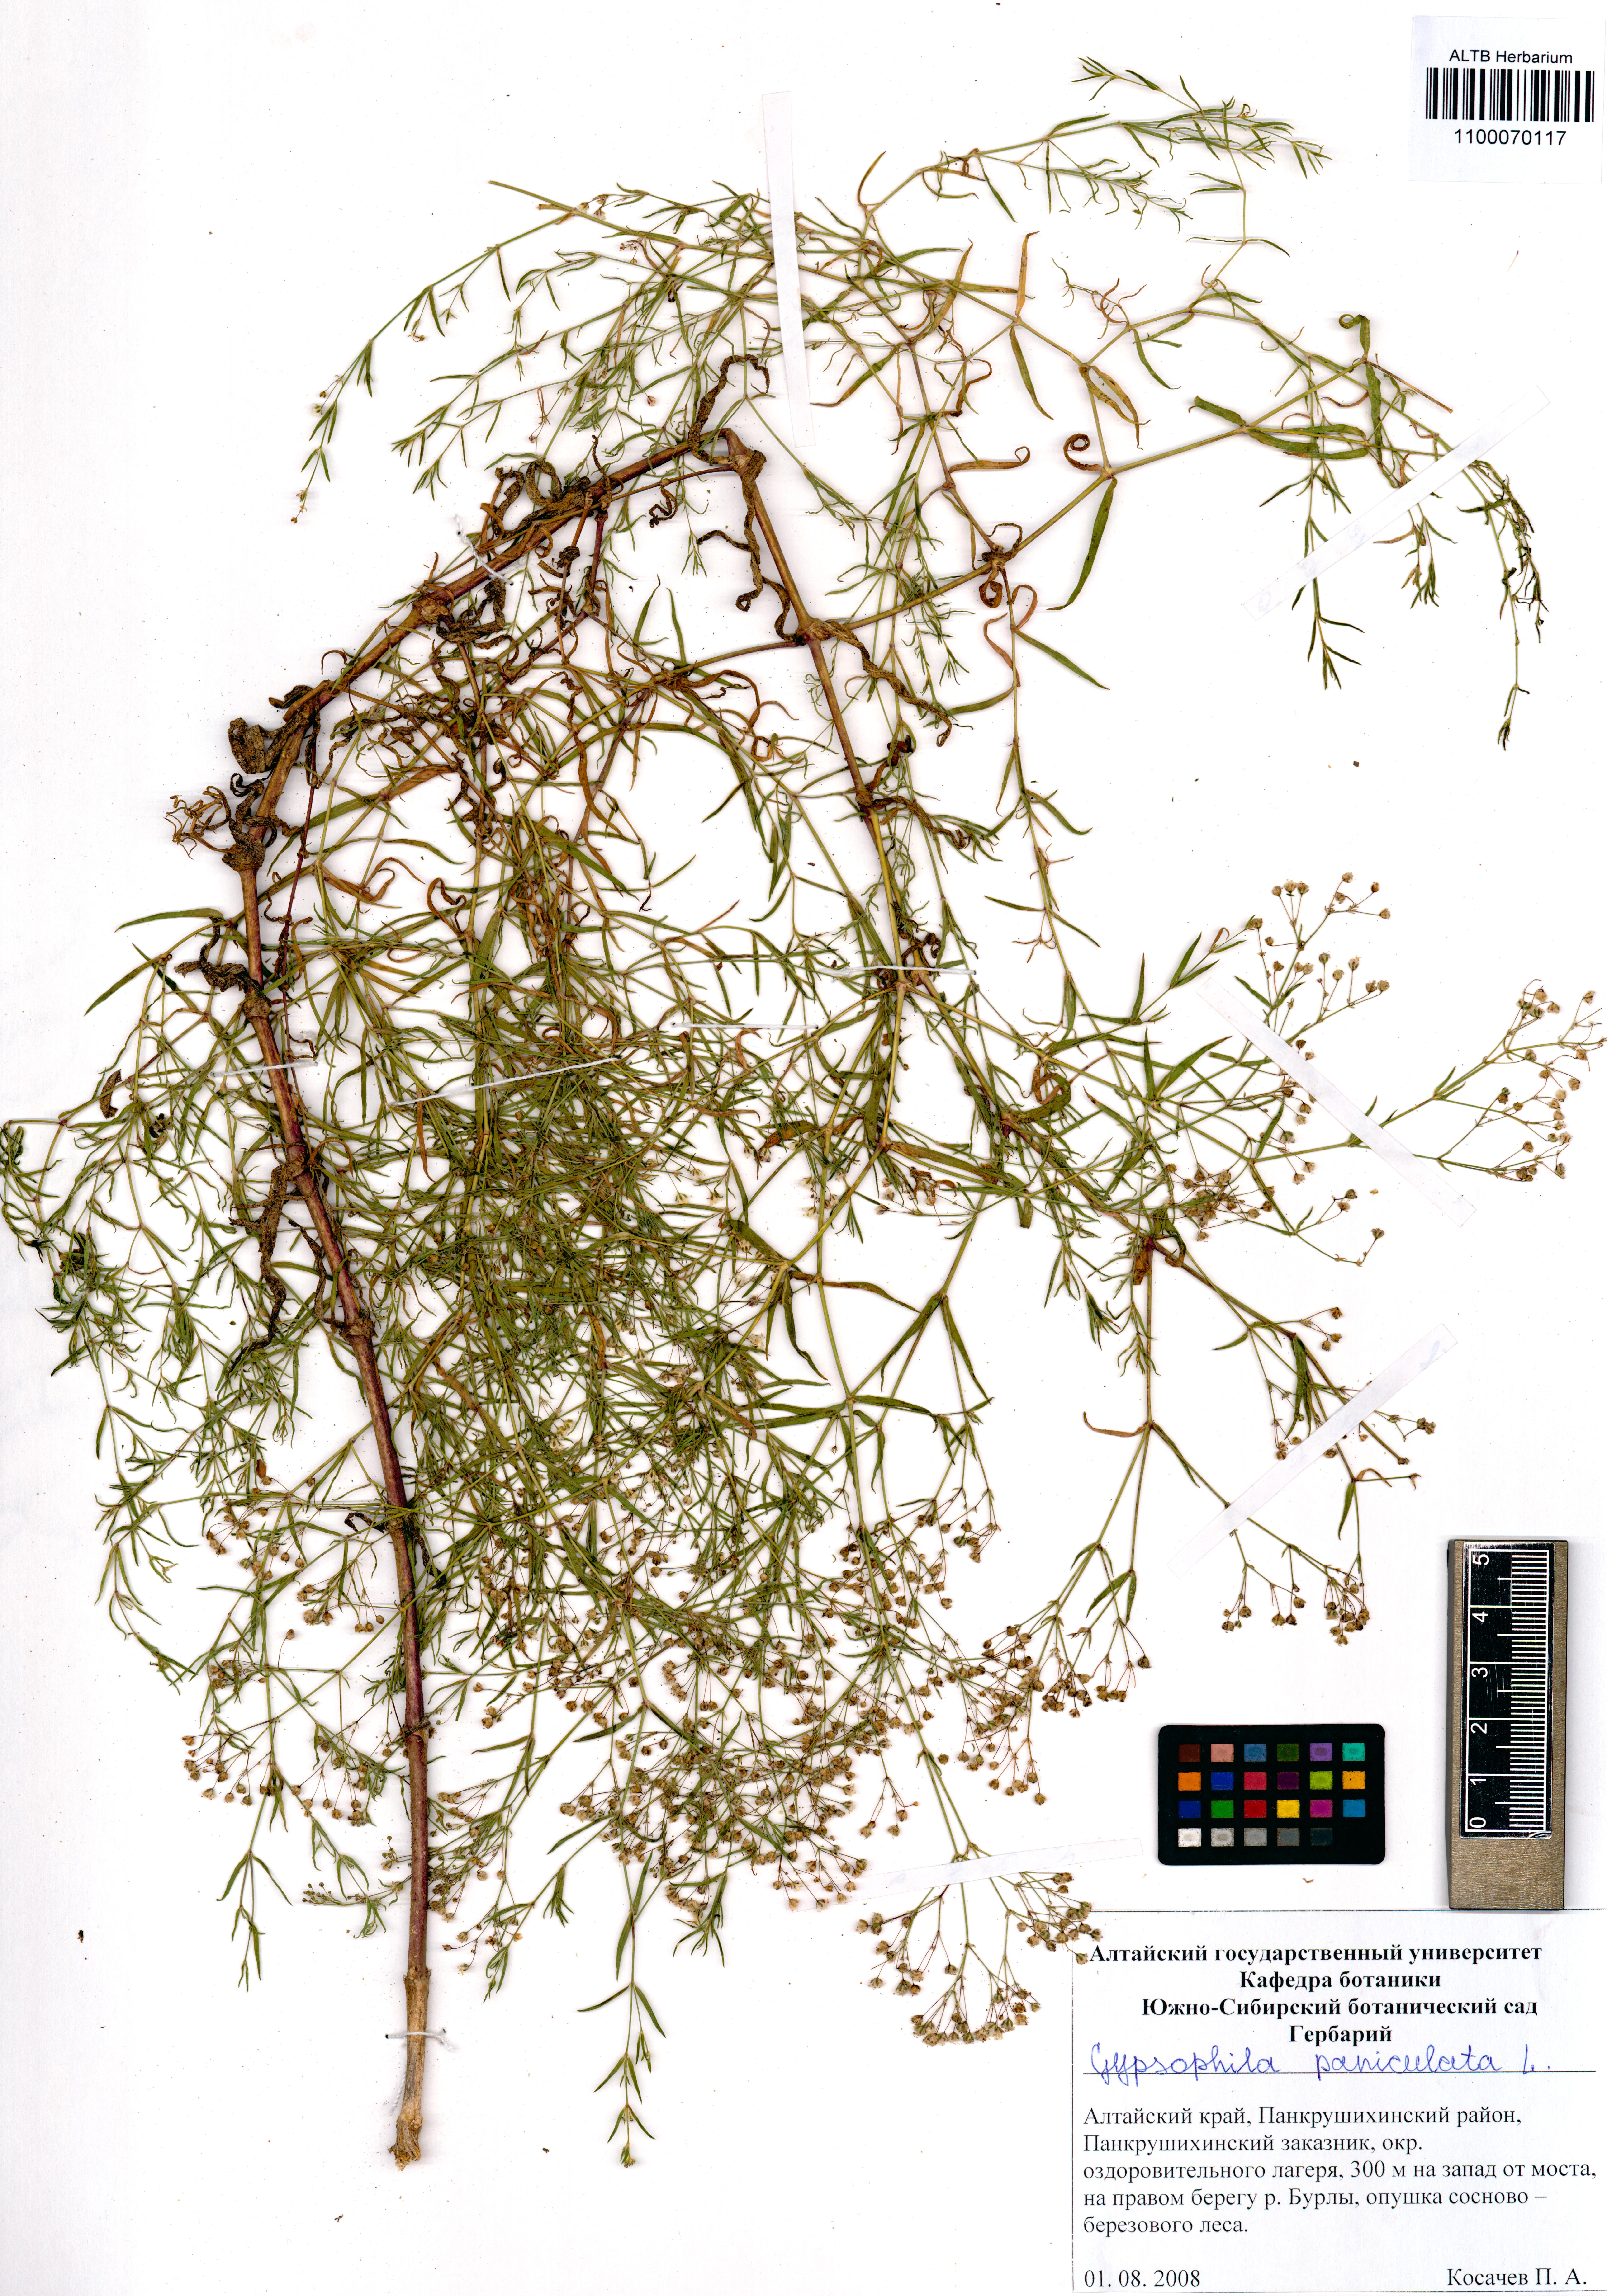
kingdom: Plantae
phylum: Tracheophyta
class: Magnoliopsida
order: Caryophyllales
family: Caryophyllaceae
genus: Gypsophila
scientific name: Gypsophila paniculata
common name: Baby's-breath
